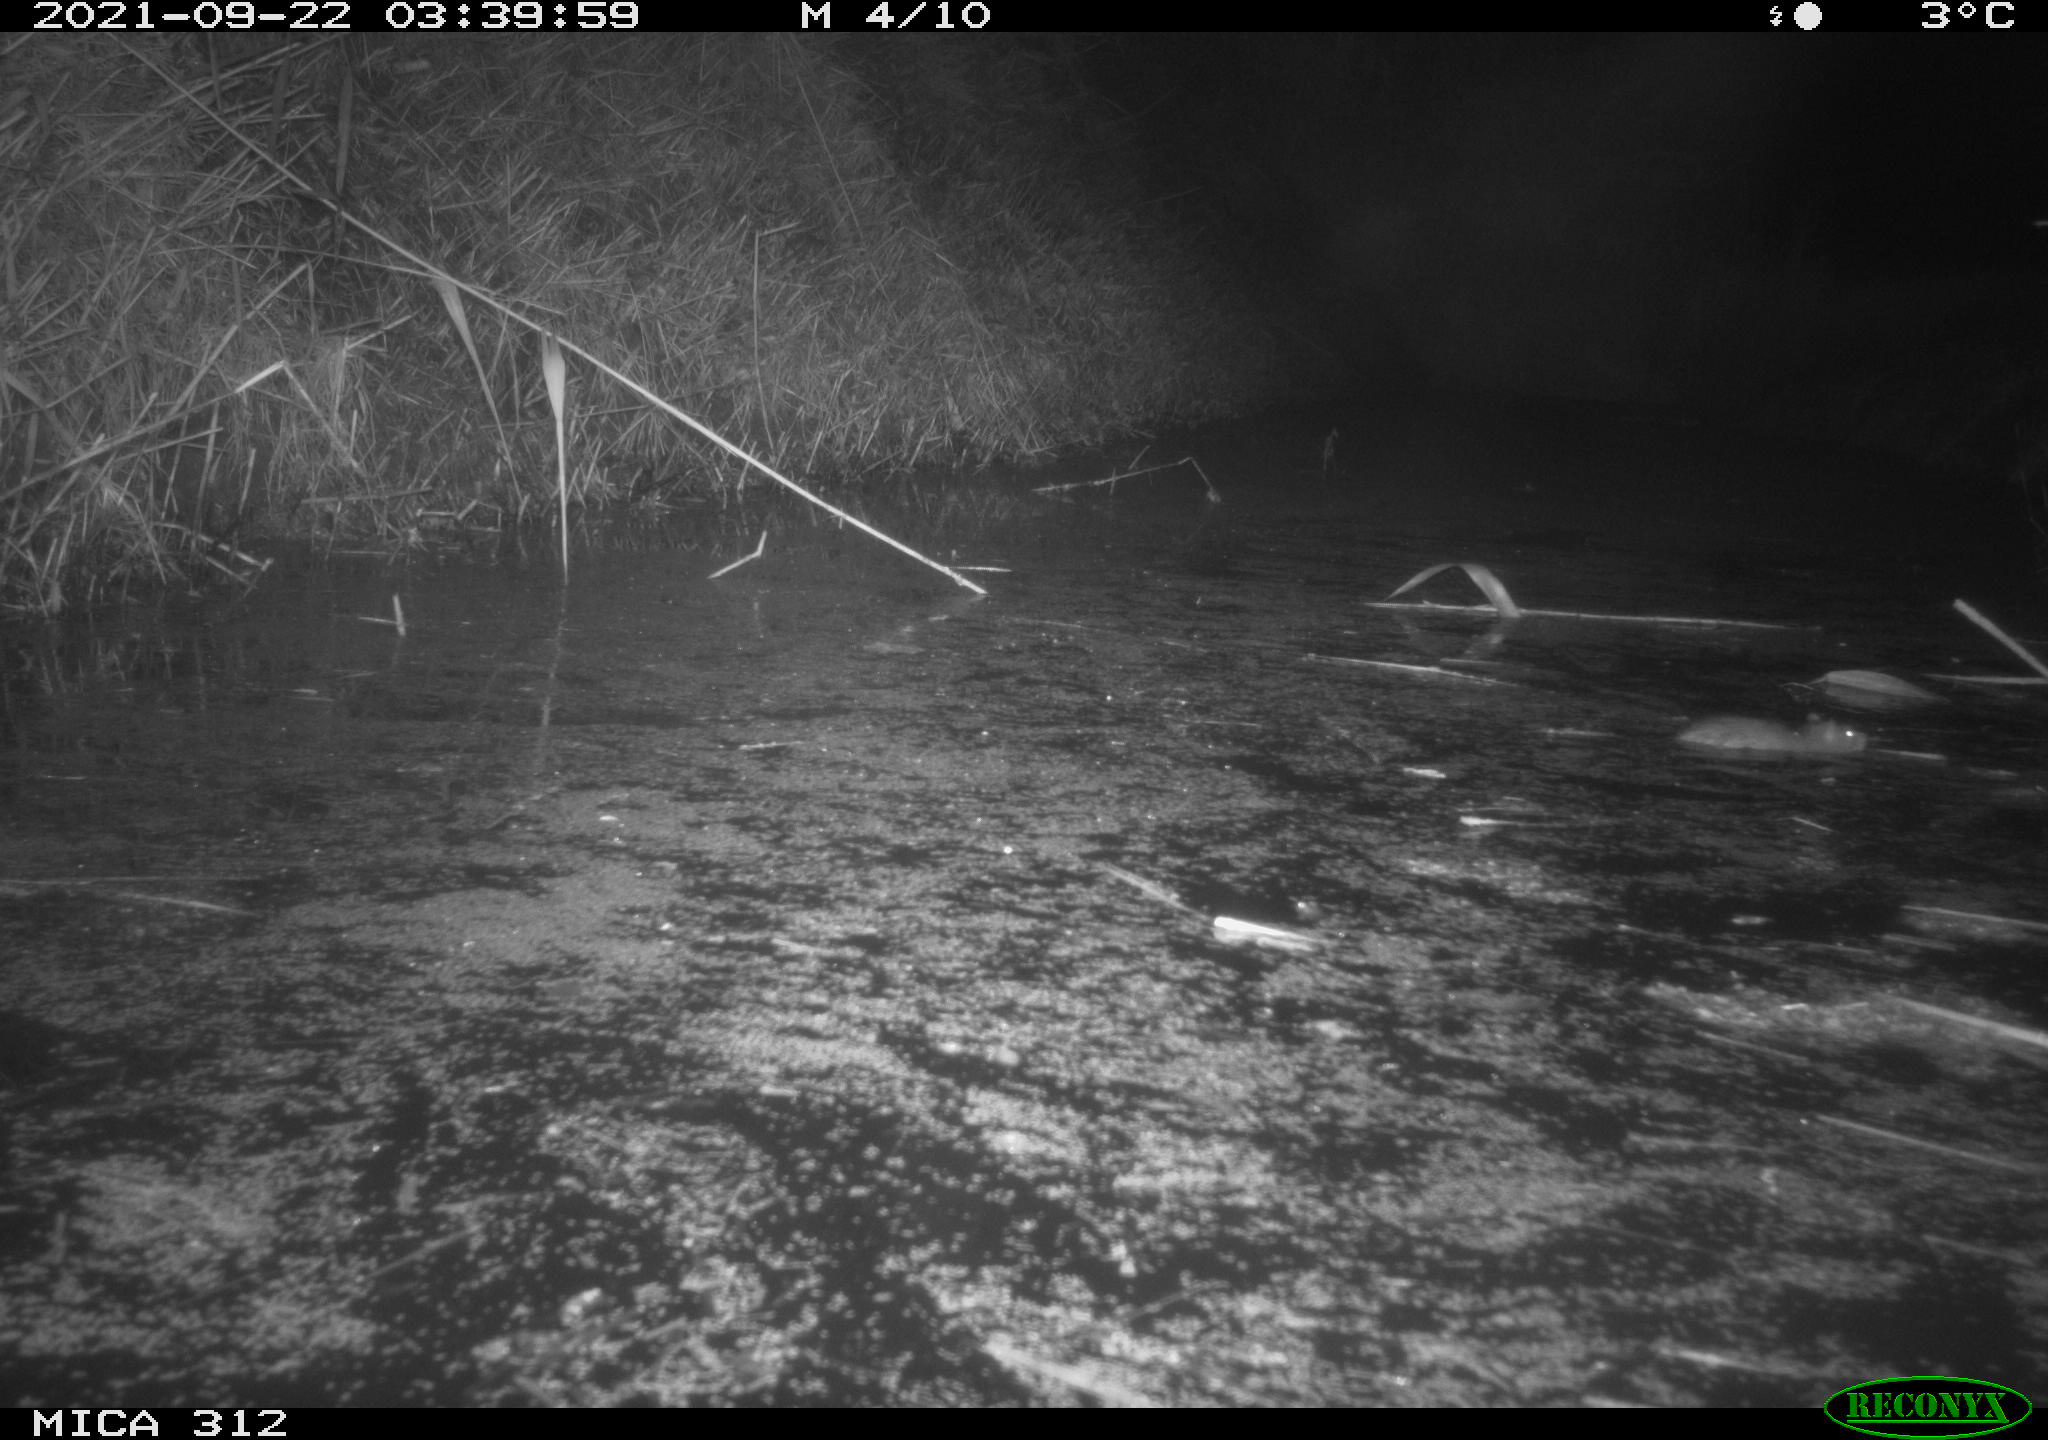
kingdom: Animalia
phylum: Chordata
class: Mammalia
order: Rodentia
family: Muridae
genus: Rattus
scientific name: Rattus norvegicus
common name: Brown rat
